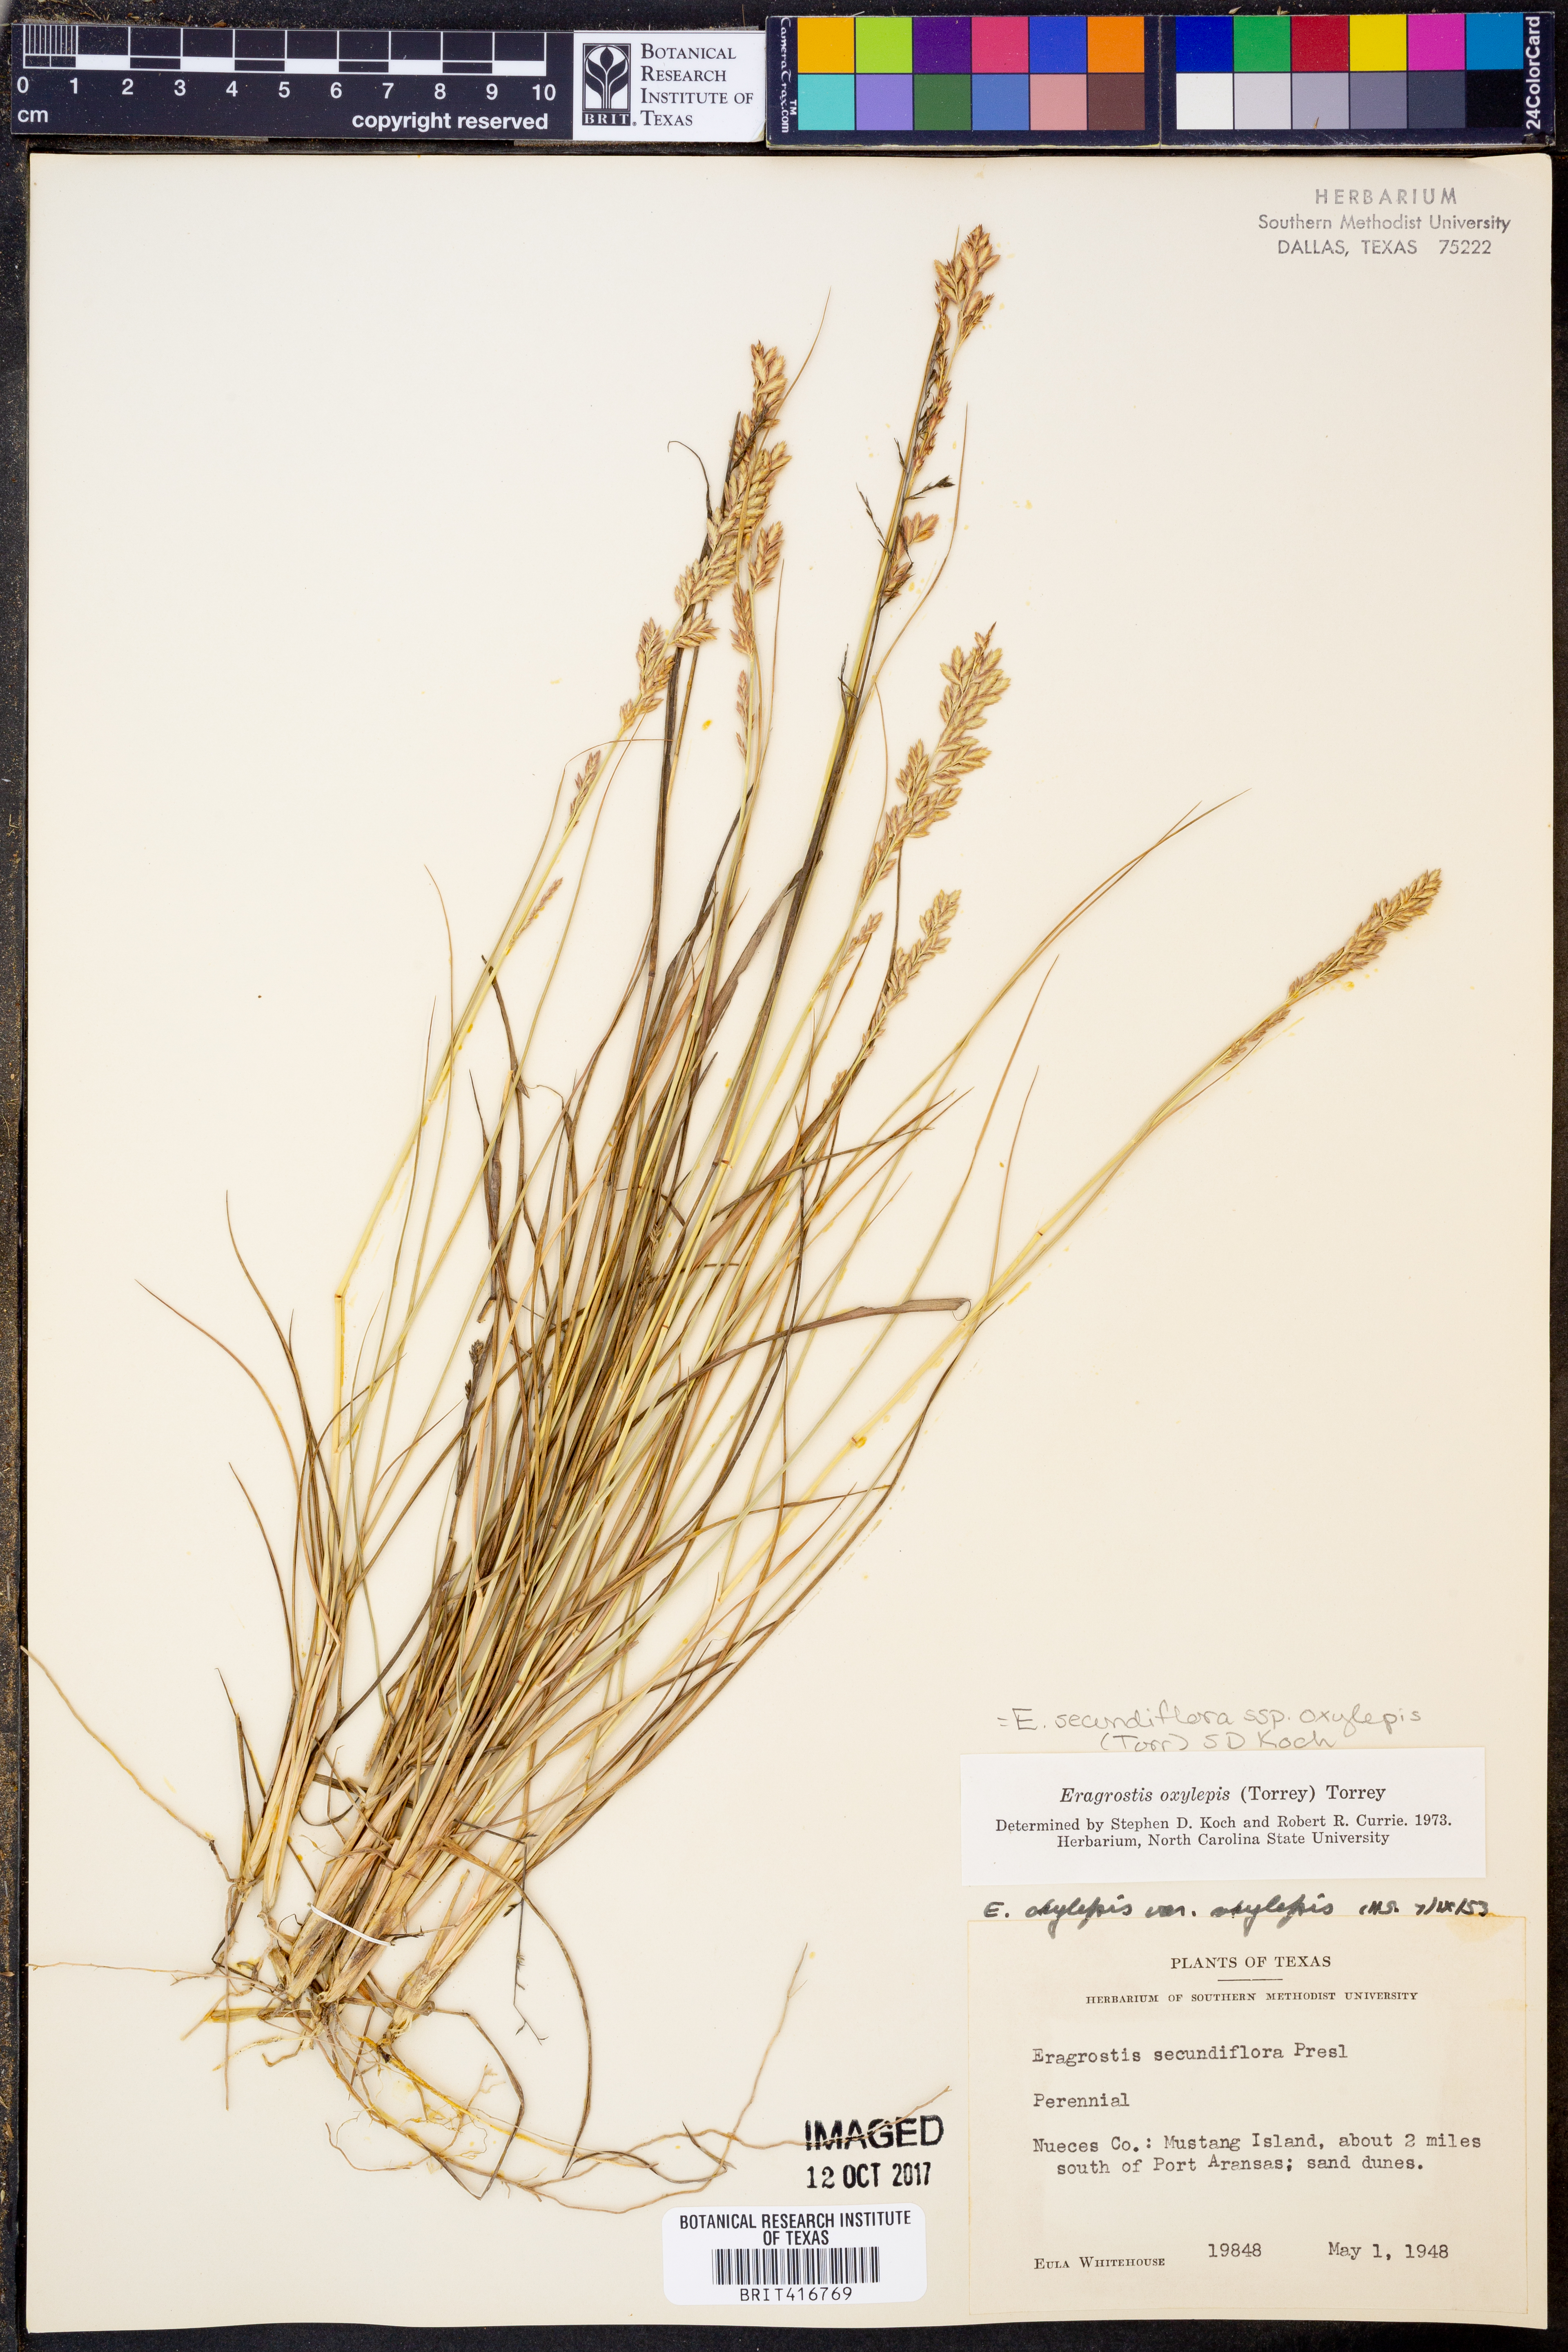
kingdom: Plantae
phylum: Tracheophyta
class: Liliopsida
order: Poales
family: Poaceae
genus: Eragrostis
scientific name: Eragrostis secundiflora
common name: Red love grass
